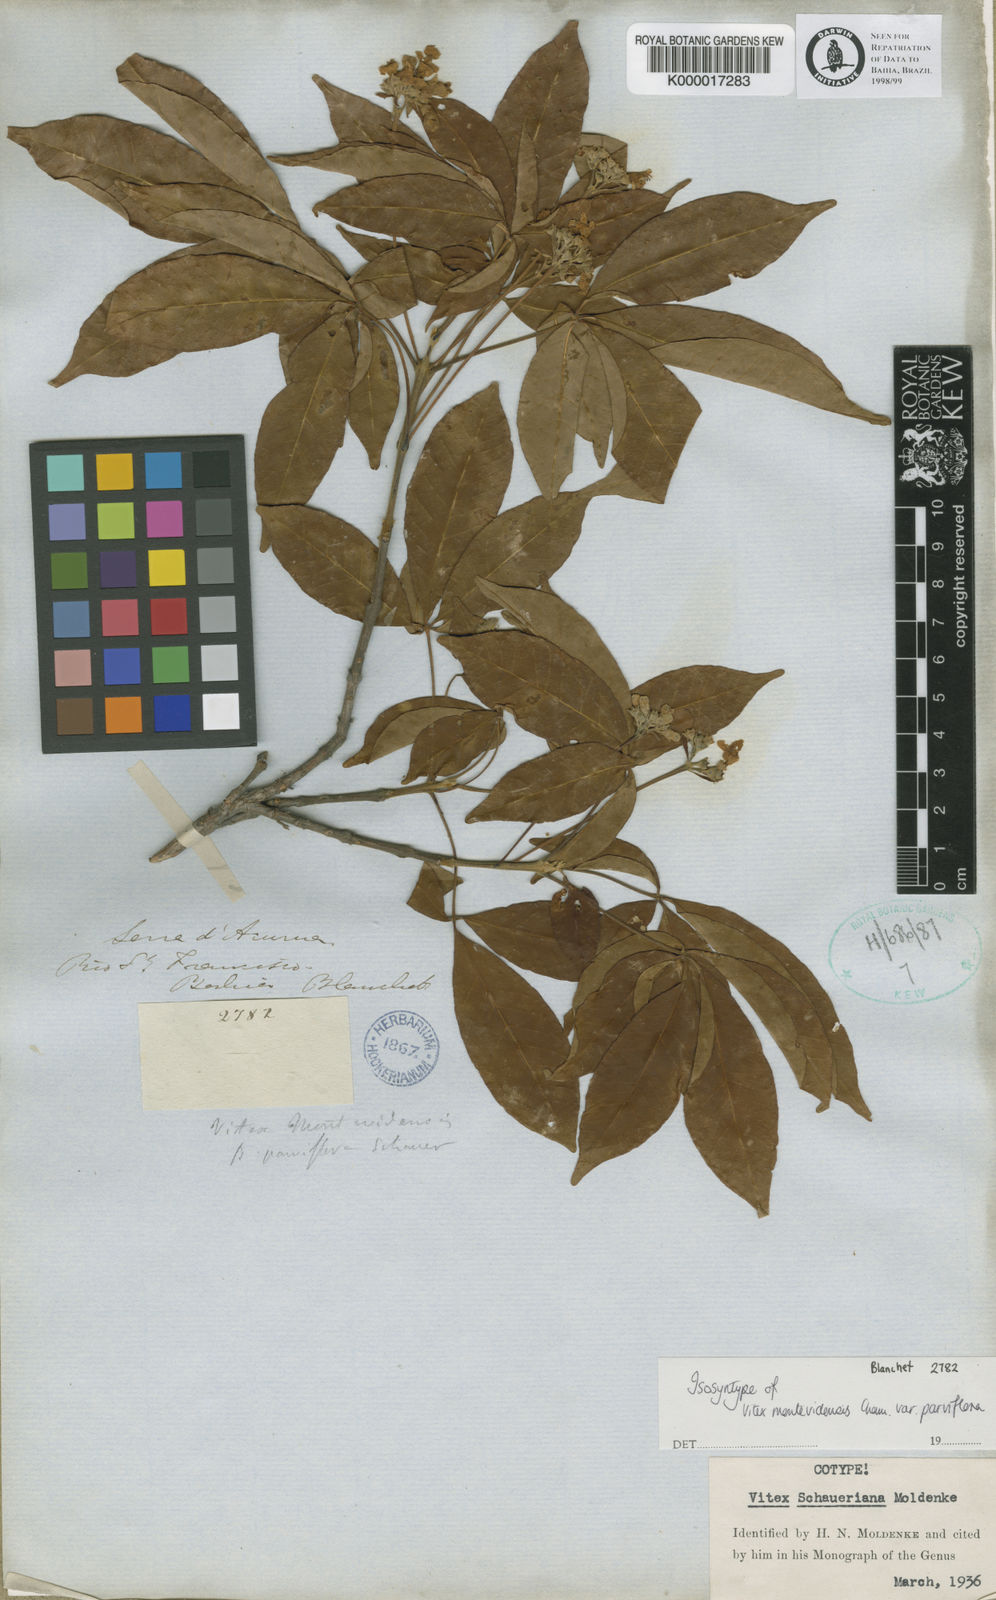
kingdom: Plantae
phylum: Tracheophyta
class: Magnoliopsida
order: Lamiales
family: Lamiaceae
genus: Vitex
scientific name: Vitex schaueriana
